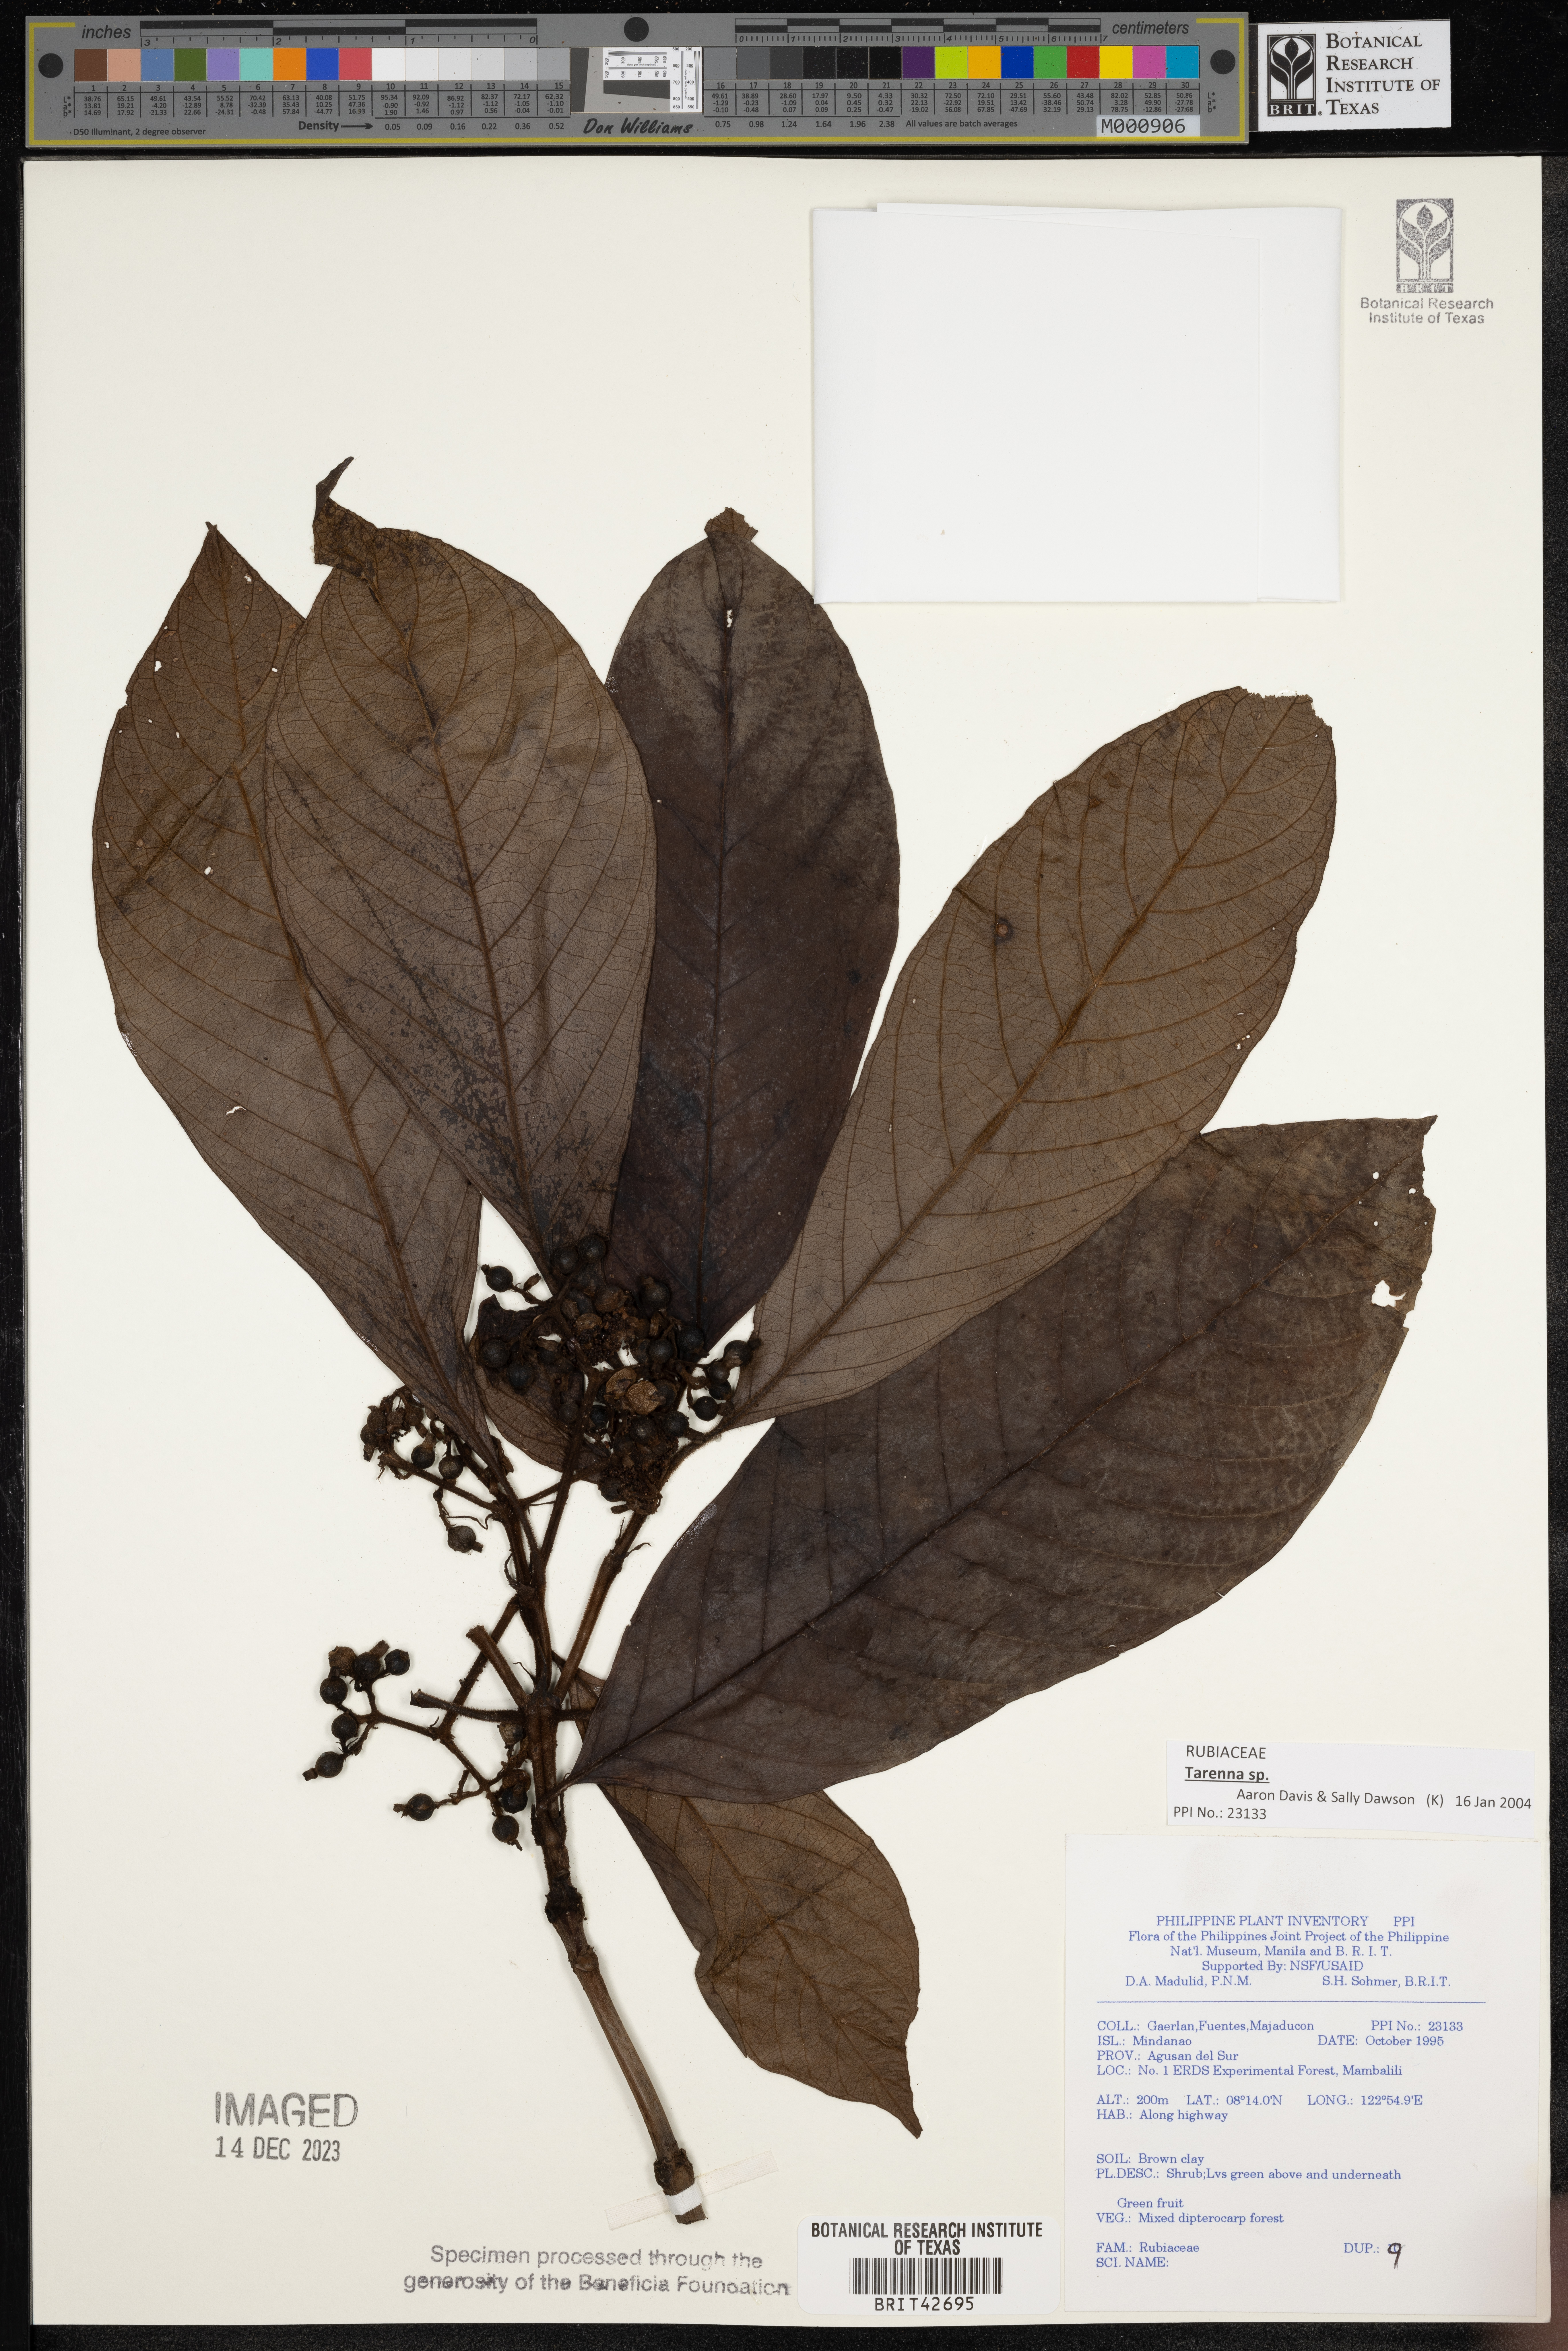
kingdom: Plantae
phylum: Tracheophyta
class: Magnoliopsida
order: Gentianales
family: Rubiaceae
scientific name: Rubiaceae
